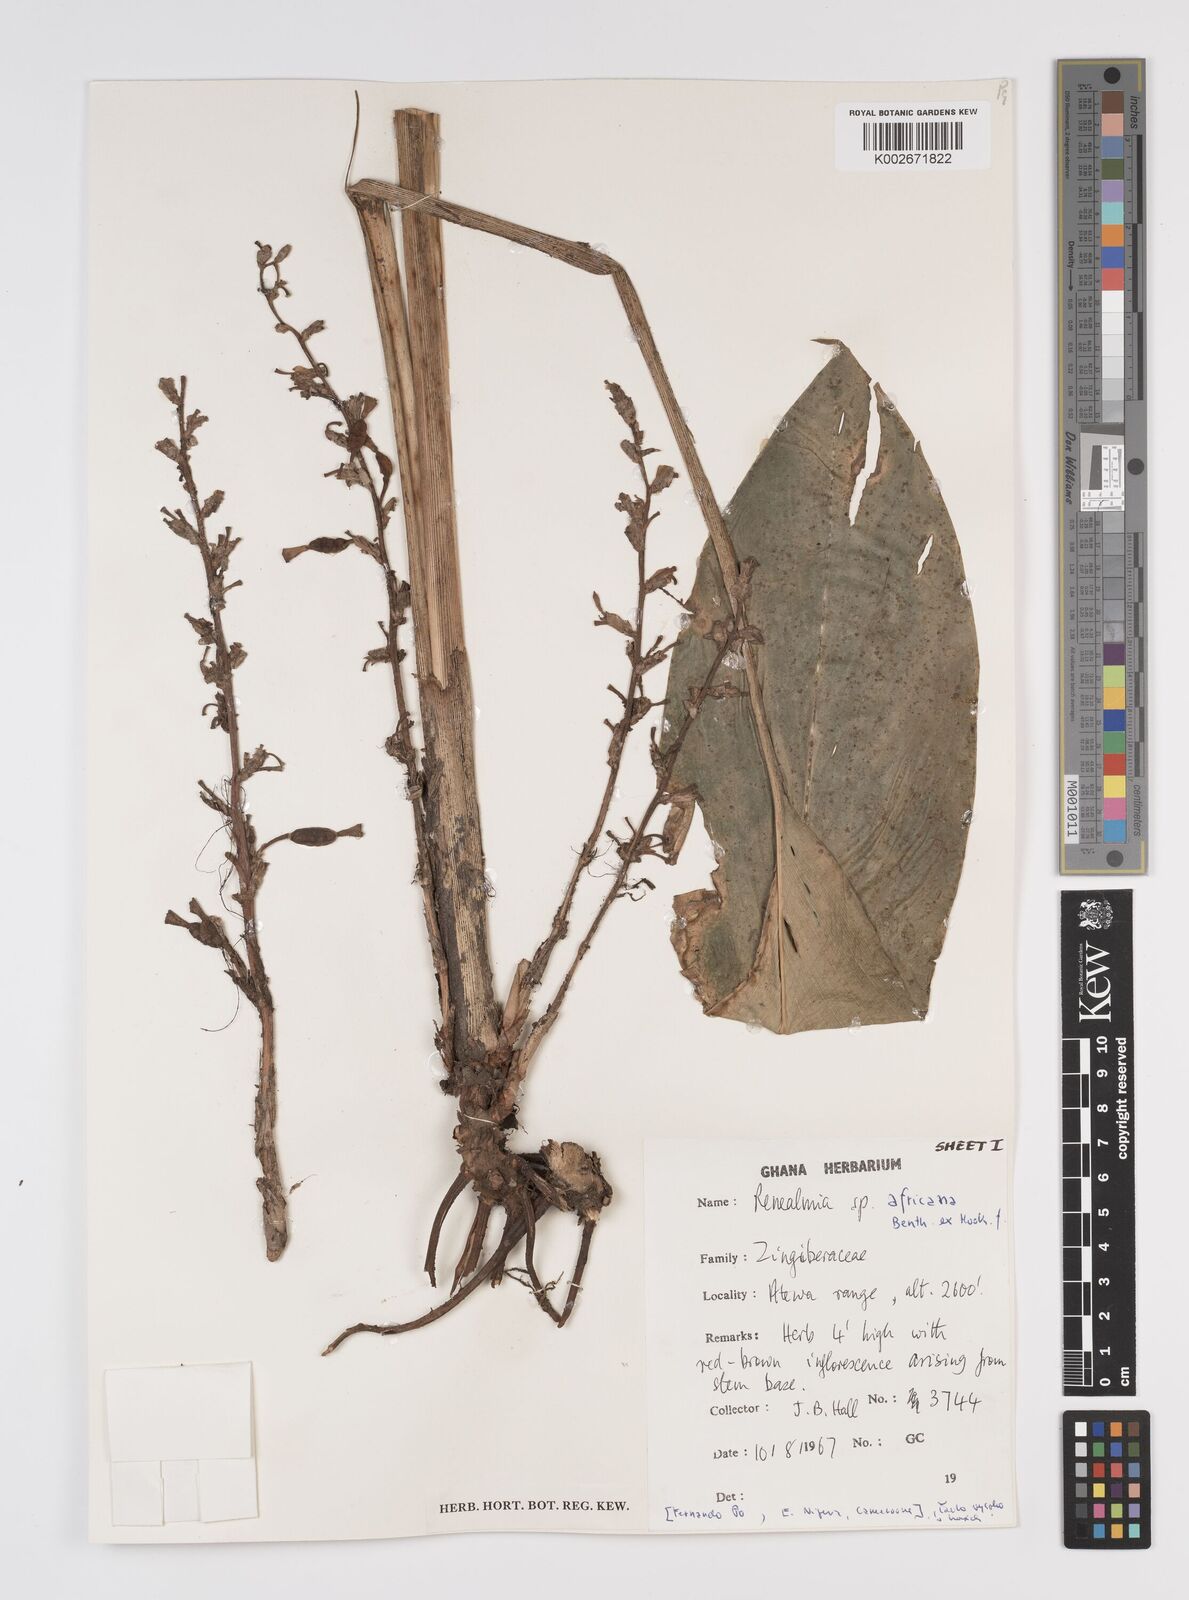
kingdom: Plantae
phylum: Tracheophyta
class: Liliopsida
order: Zingiberales
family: Zingiberaceae
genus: Renealmia
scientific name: Renealmia africana
